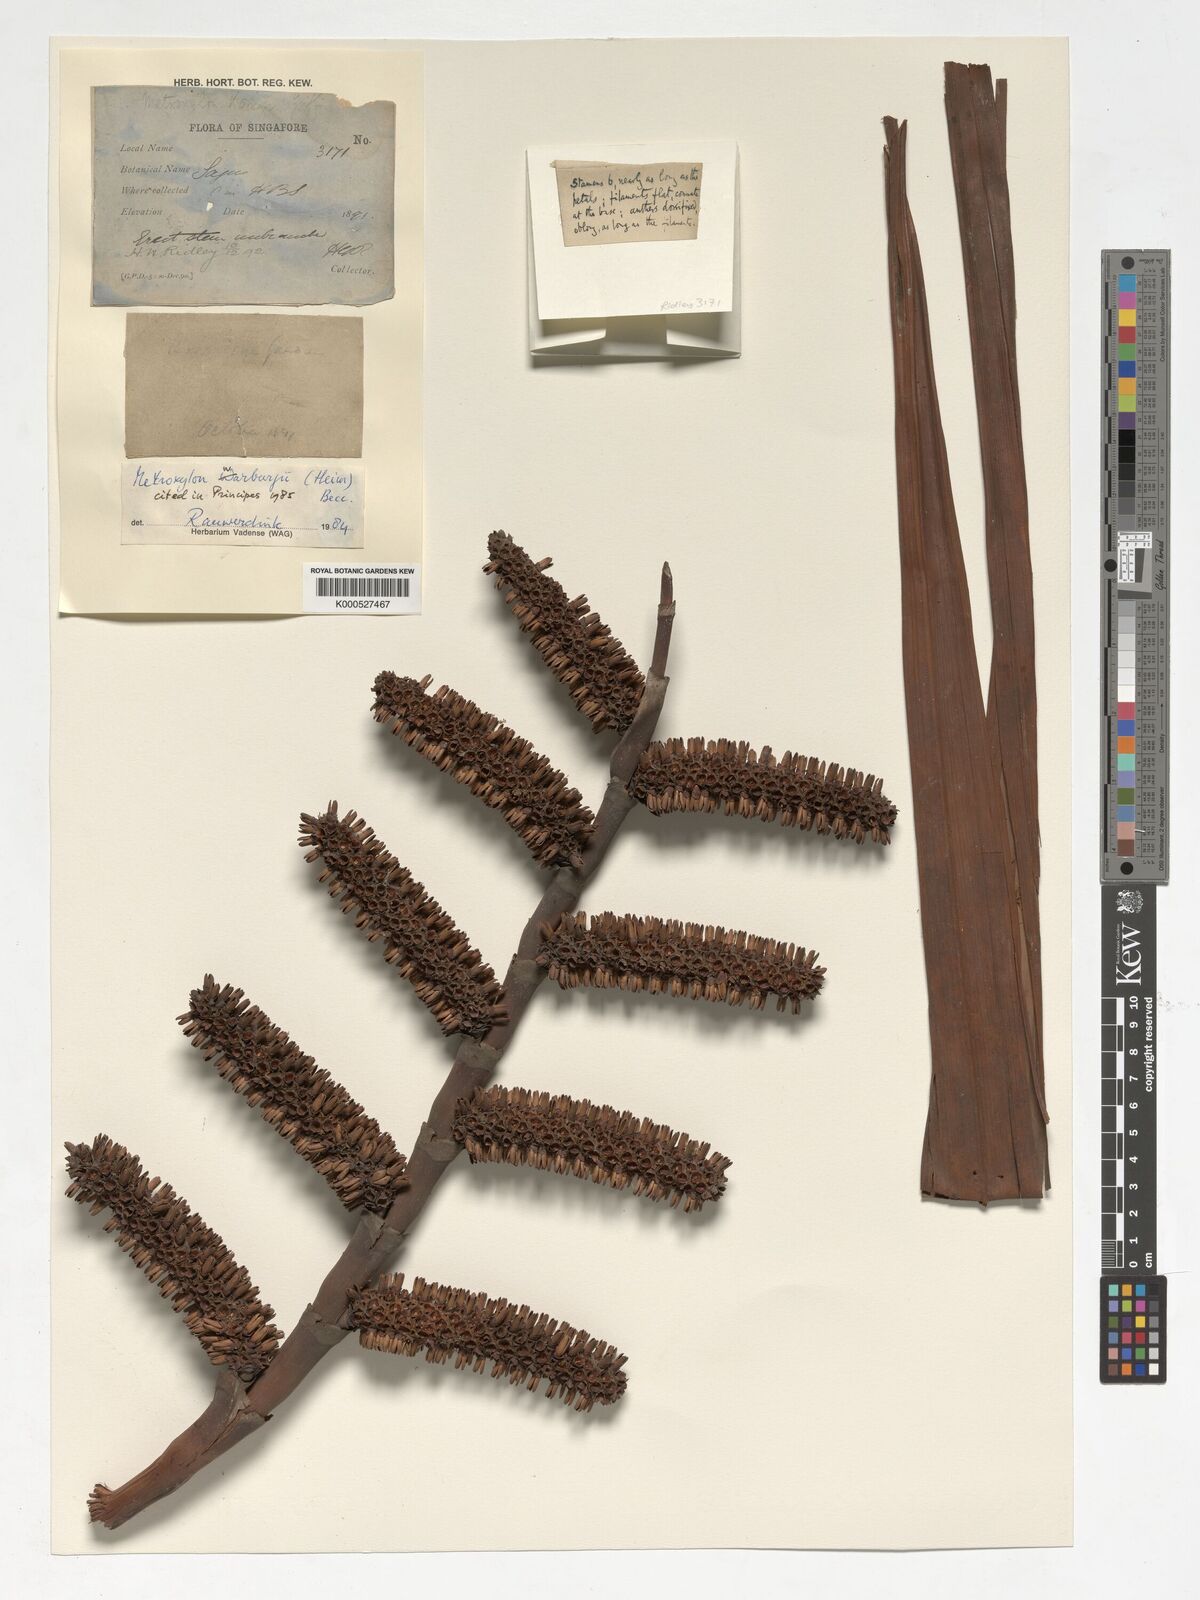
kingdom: Plantae
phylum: Tracheophyta
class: Liliopsida
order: Arecales
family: Arecaceae
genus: Metroxylon
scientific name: Metroxylon warburgii
